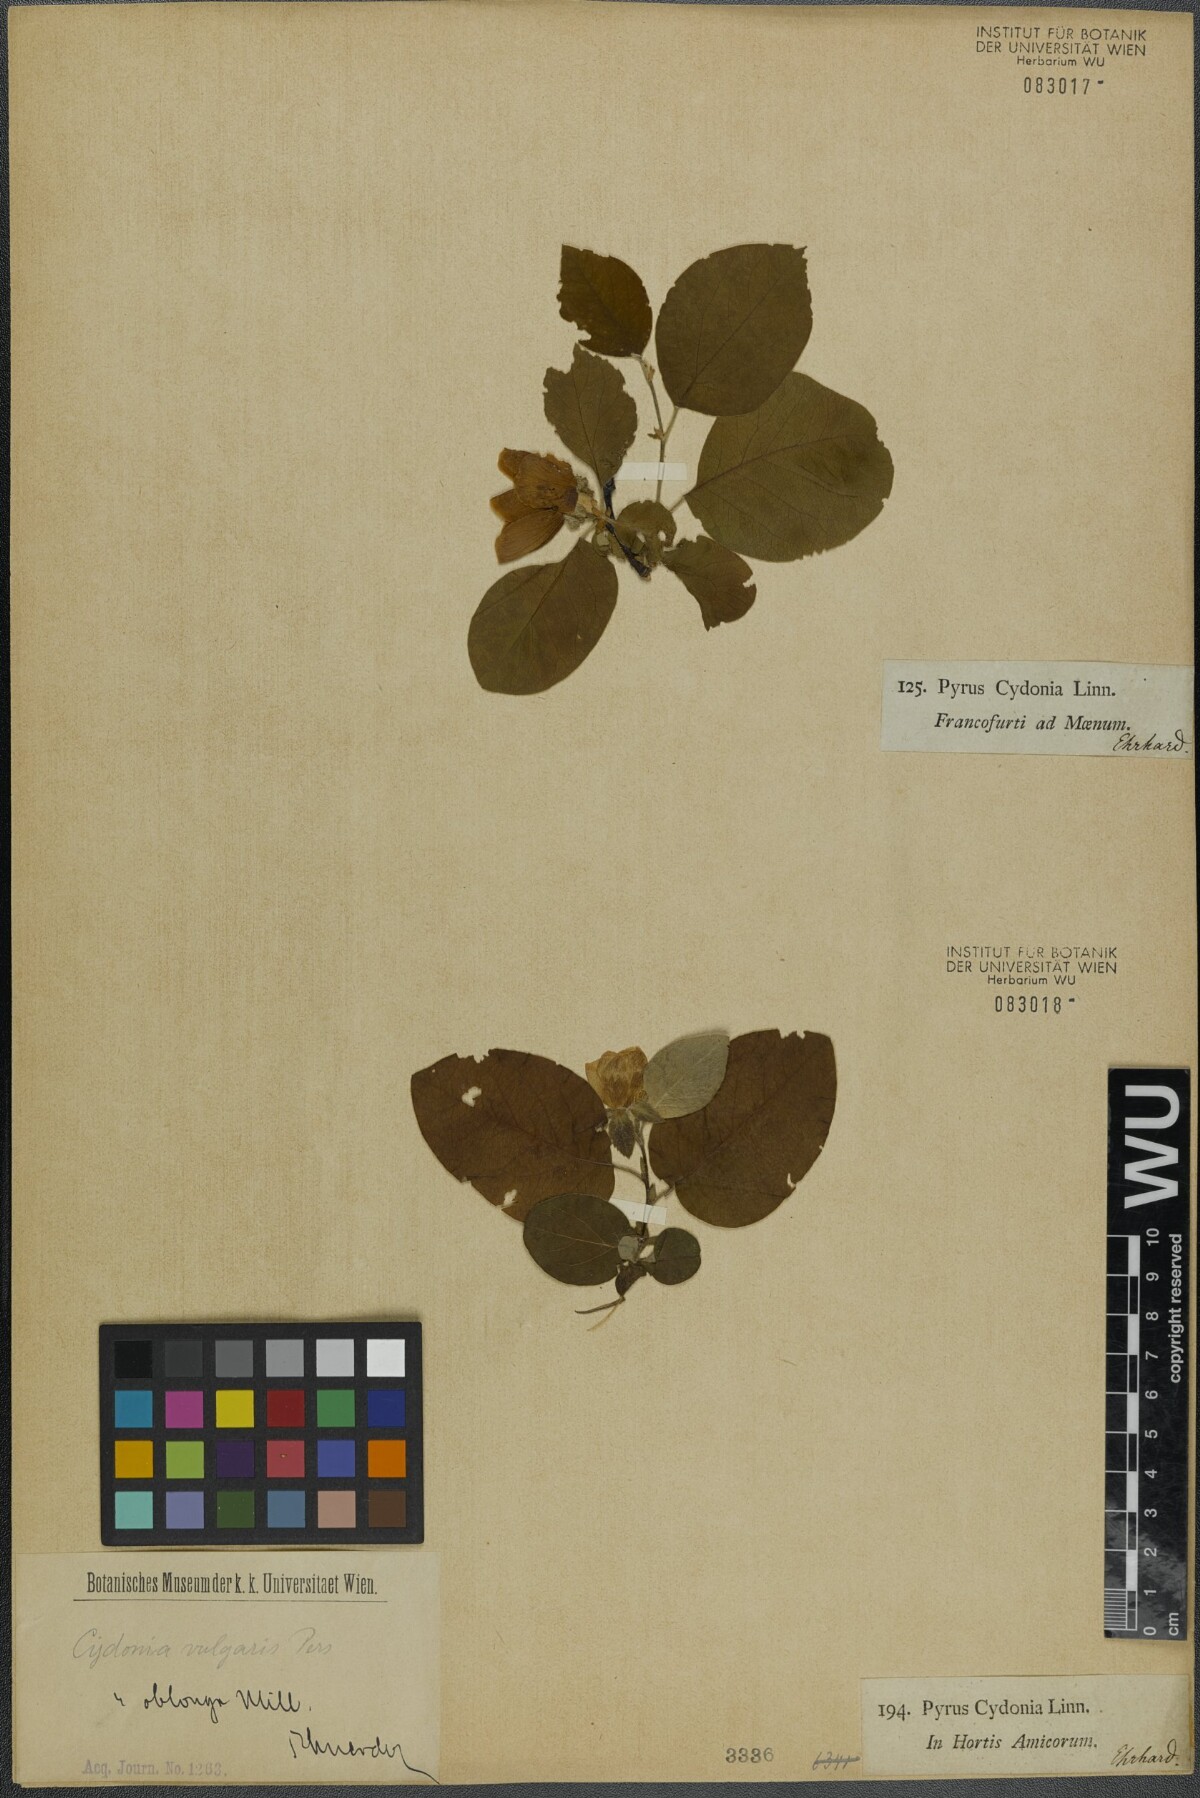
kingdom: Plantae
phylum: Tracheophyta
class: Magnoliopsida
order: Rosales
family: Rosaceae
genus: Cydonia
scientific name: Cydonia oblonga
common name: Quince
